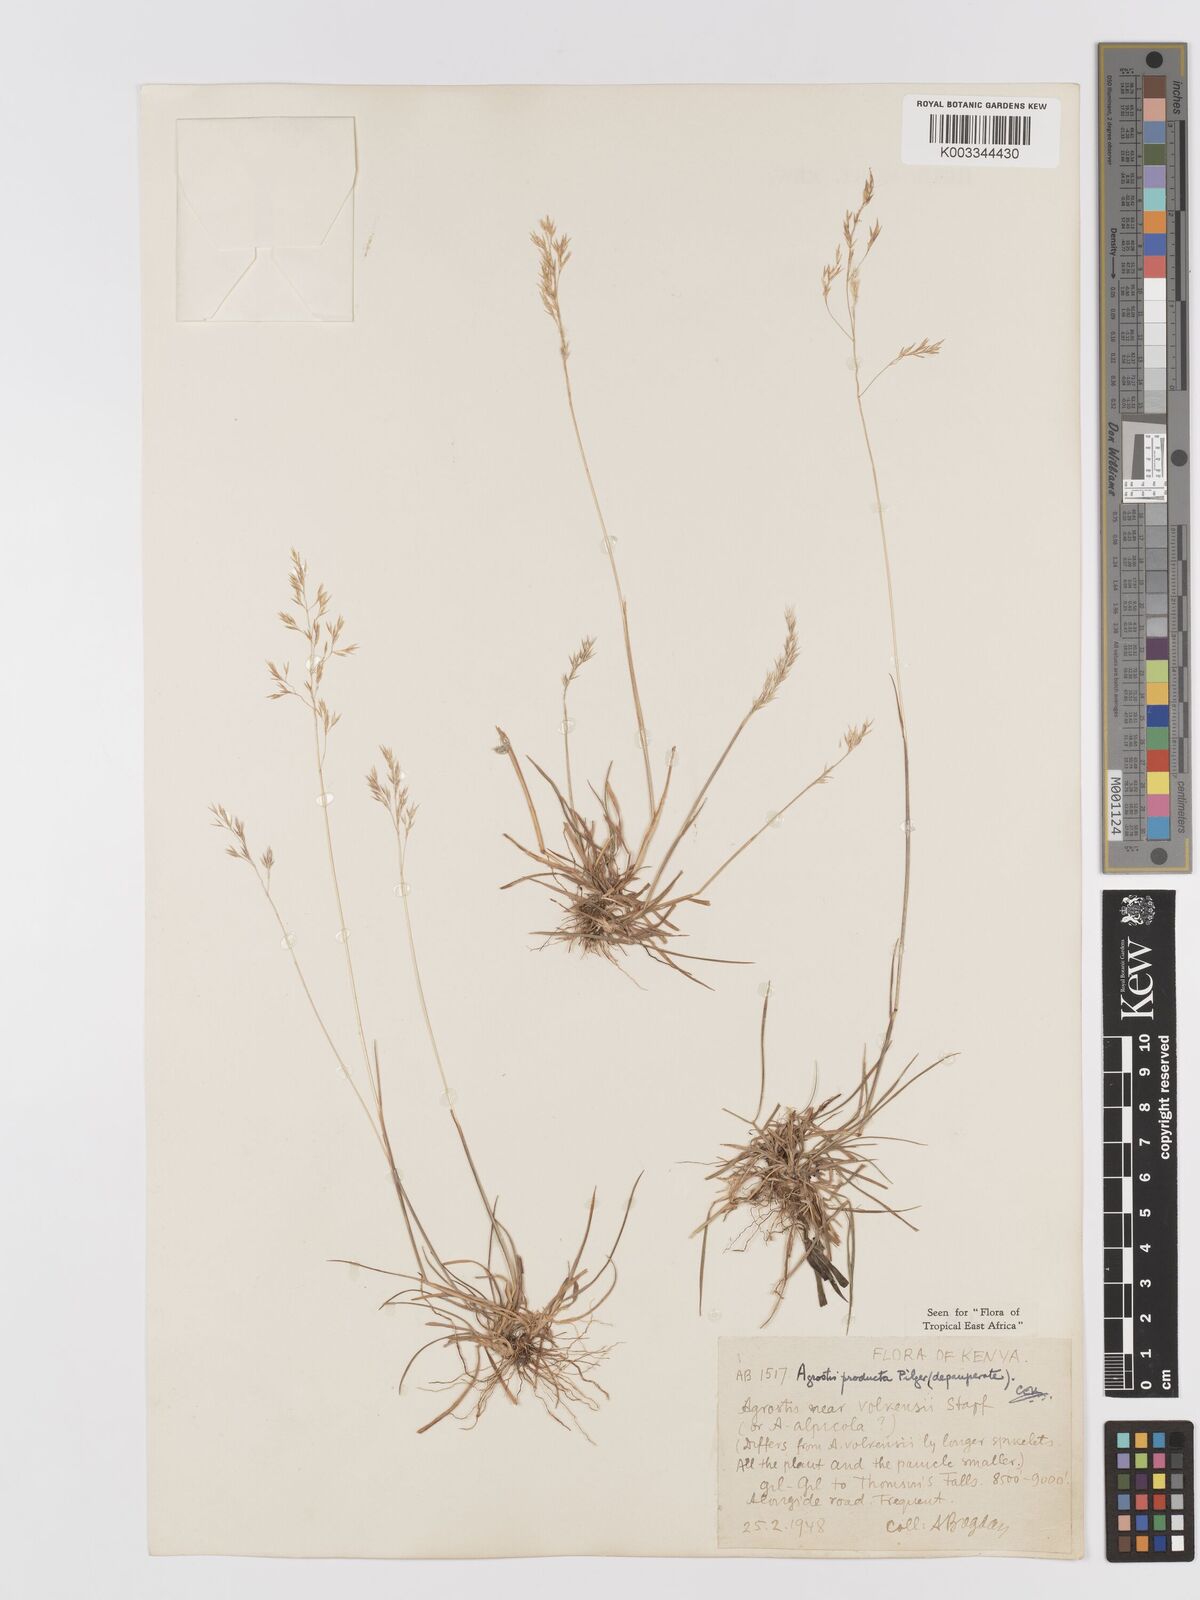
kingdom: Plantae
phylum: Tracheophyta
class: Liliopsida
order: Poales
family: Poaceae
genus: Agrostis
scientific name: Agrostis producta
